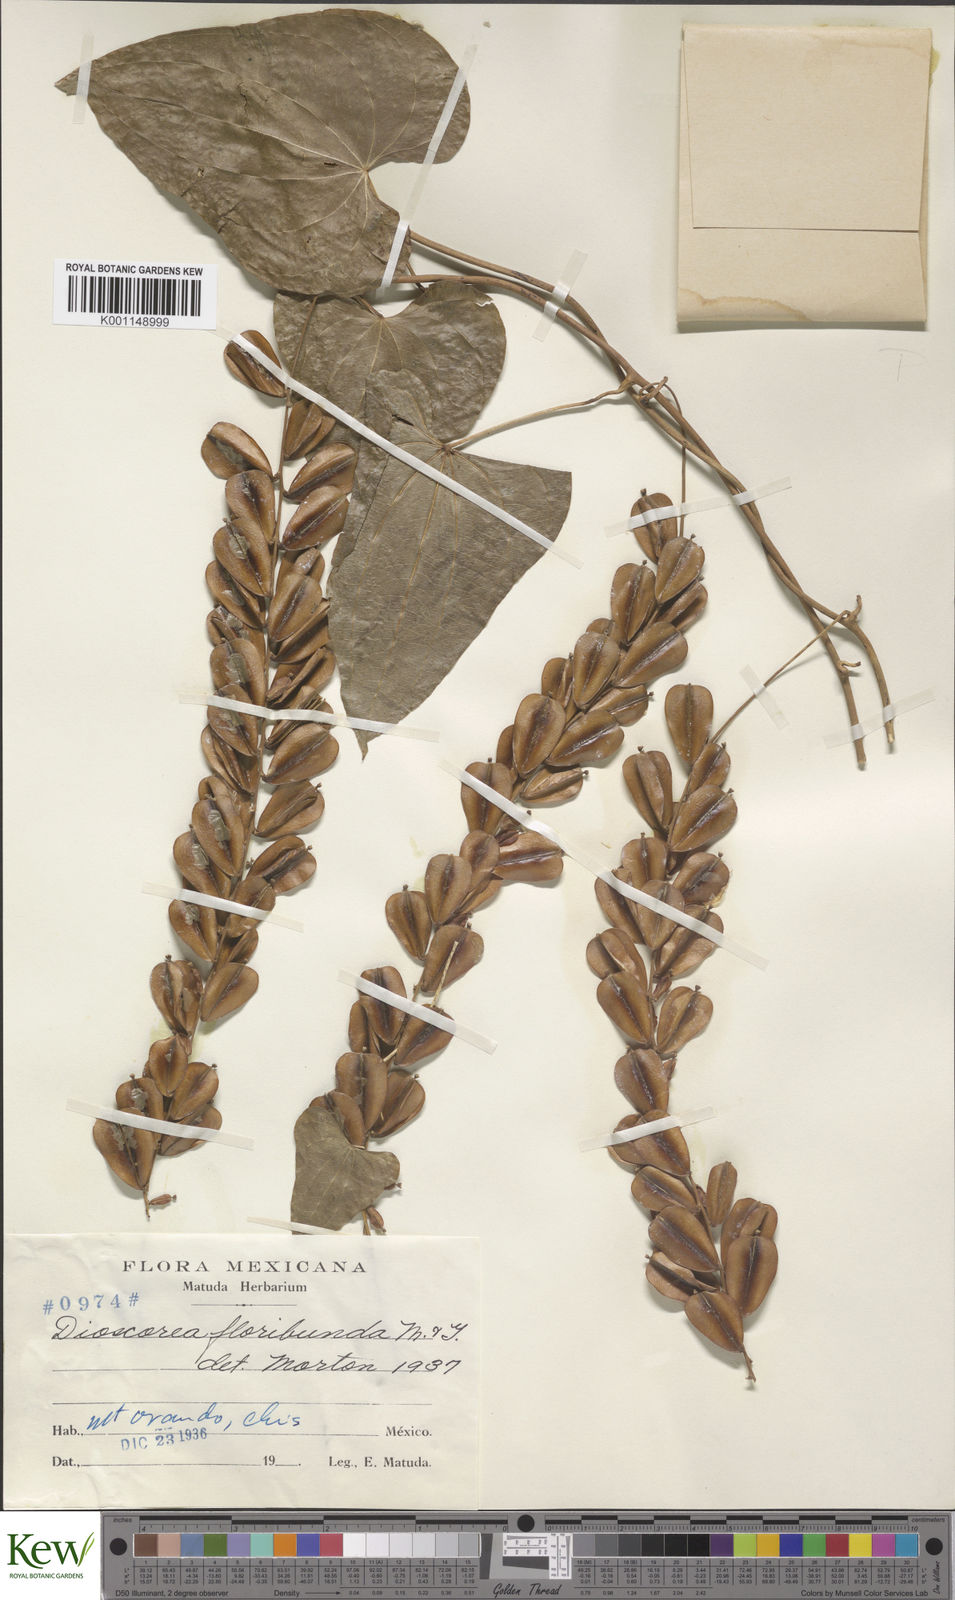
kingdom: Plantae
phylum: Tracheophyta
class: Liliopsida
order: Dioscoreales
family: Dioscoreaceae
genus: Dioscorea
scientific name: Dioscorea floribunda
